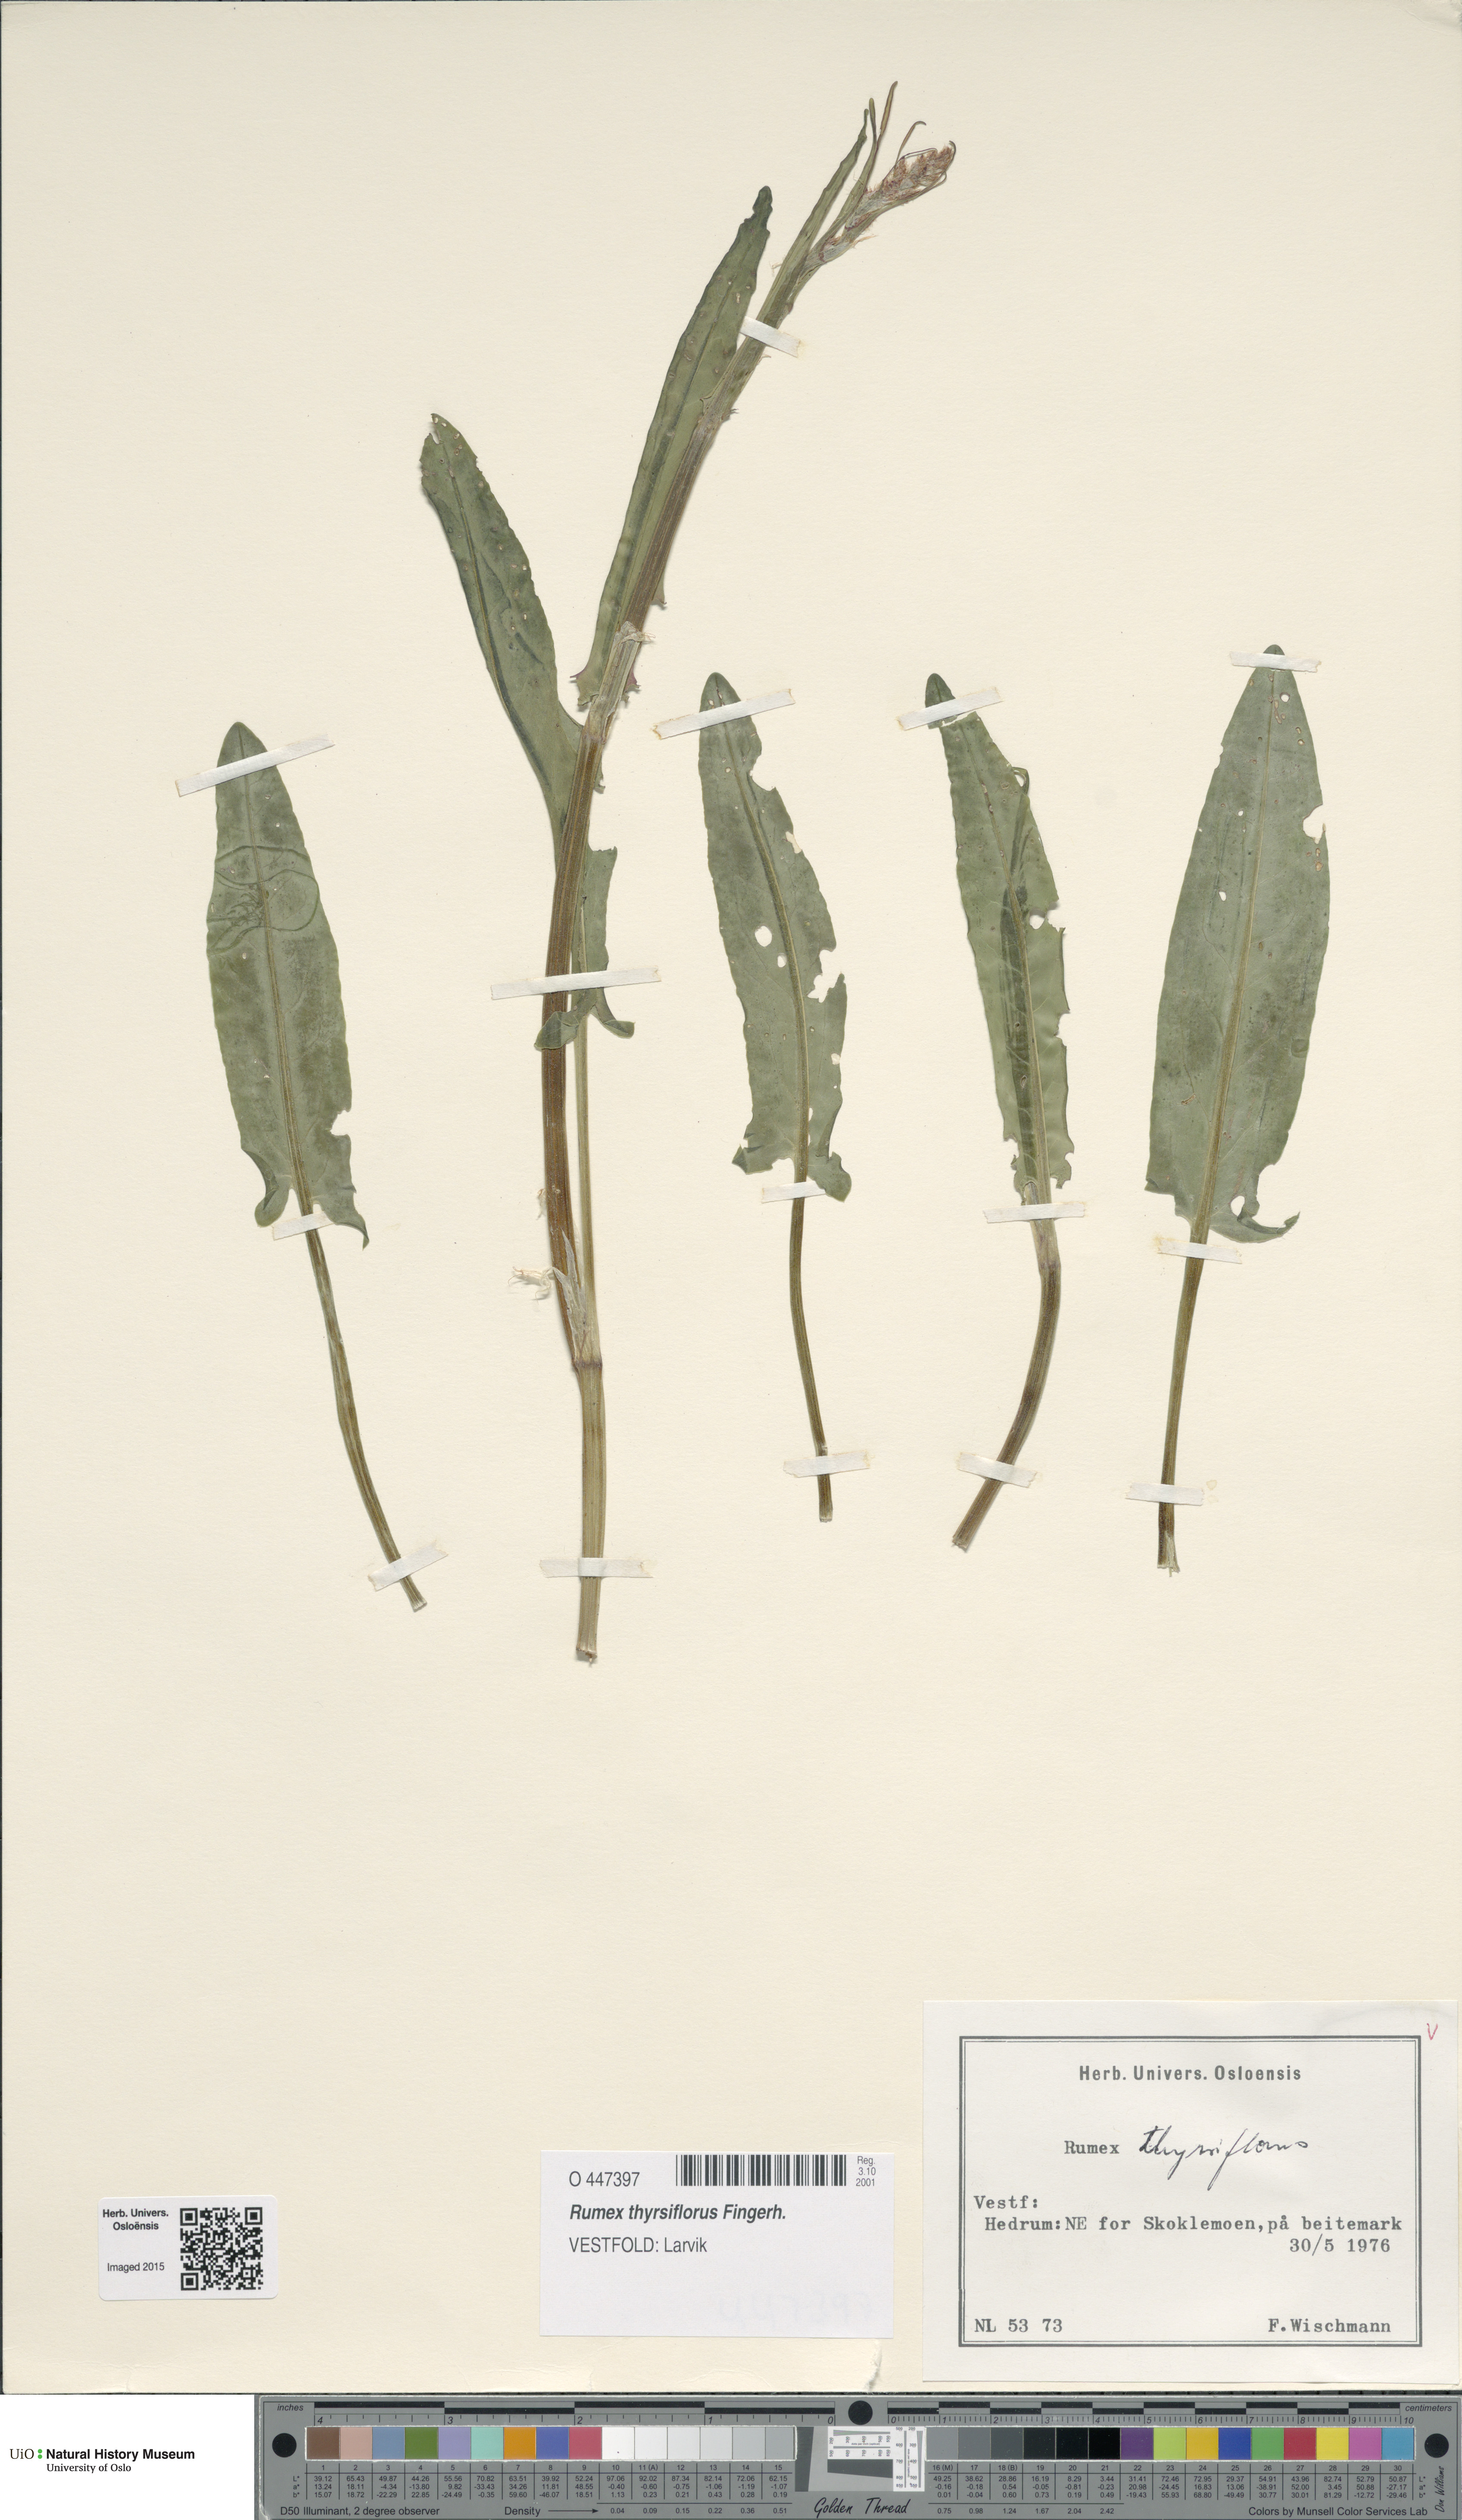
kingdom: Plantae
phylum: Tracheophyta
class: Magnoliopsida
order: Caryophyllales
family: Polygonaceae
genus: Rumex
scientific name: Rumex thyrsiflorus
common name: Garden sorrel
